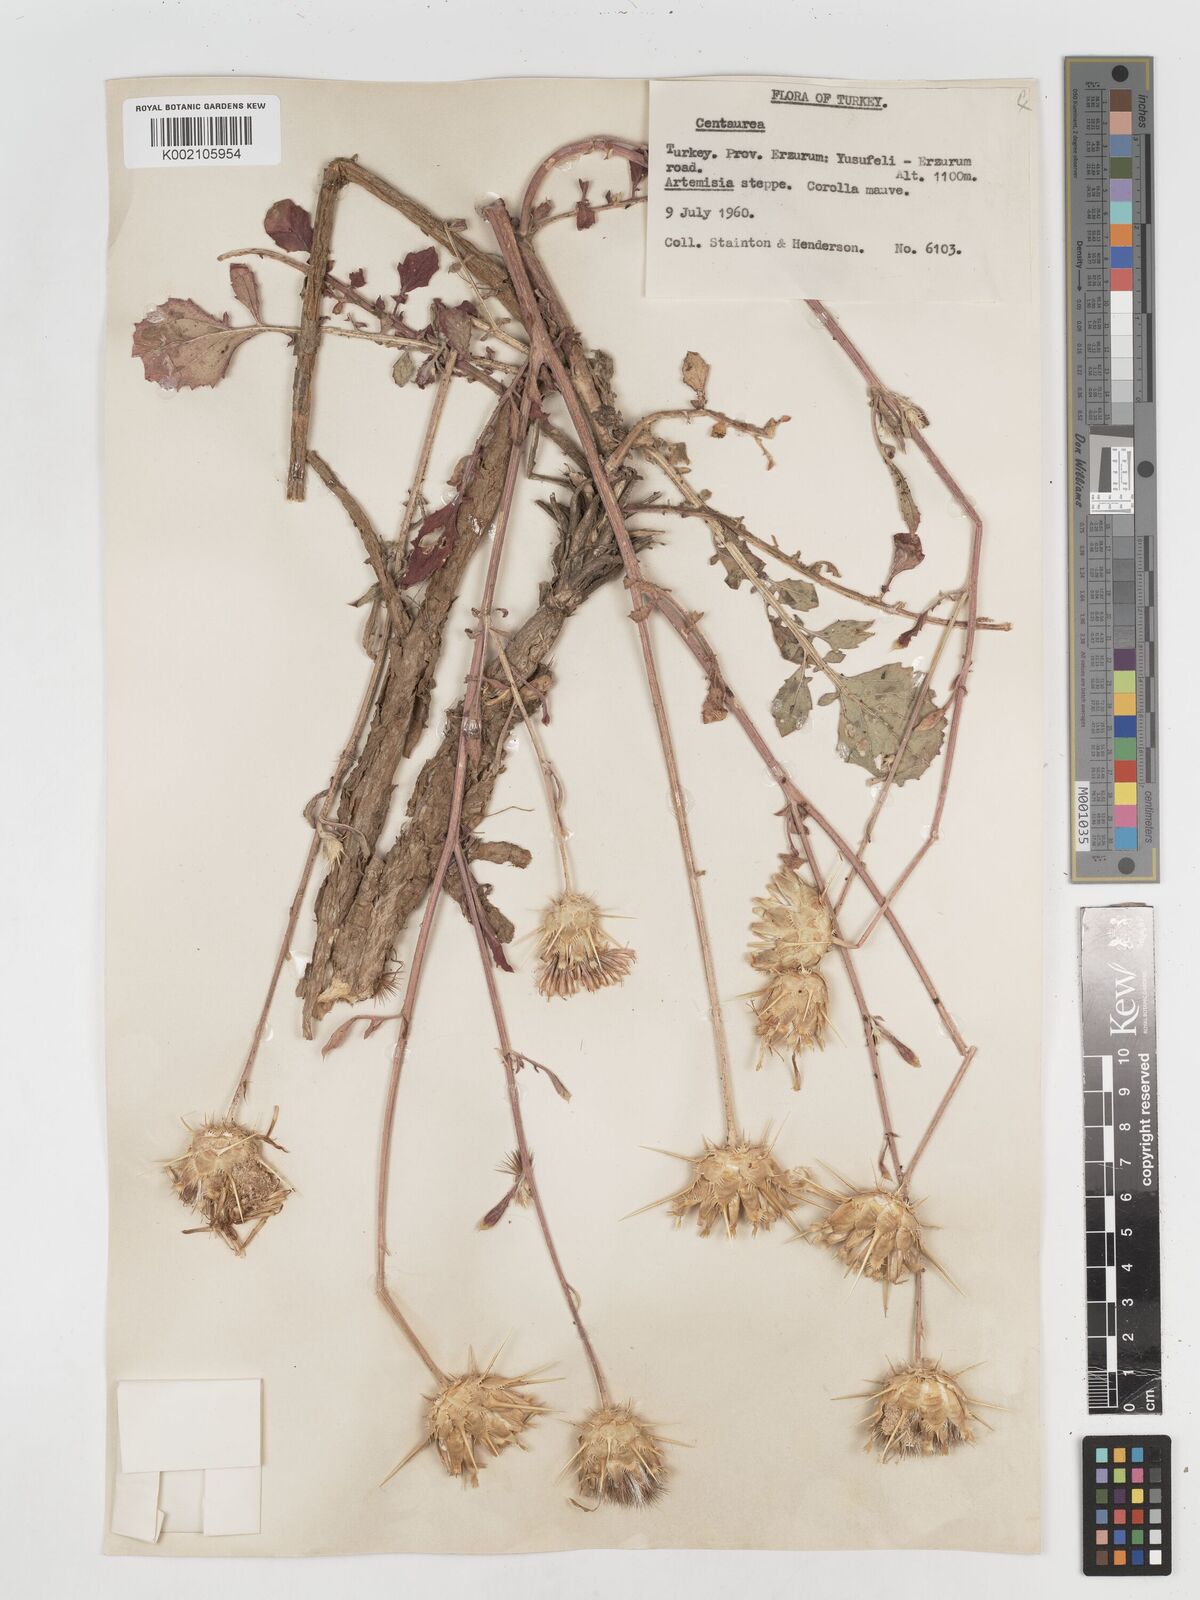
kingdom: Plantae
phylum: Tracheophyta
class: Magnoliopsida
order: Asterales
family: Asteraceae
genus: Centaurea
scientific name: Centaurea
